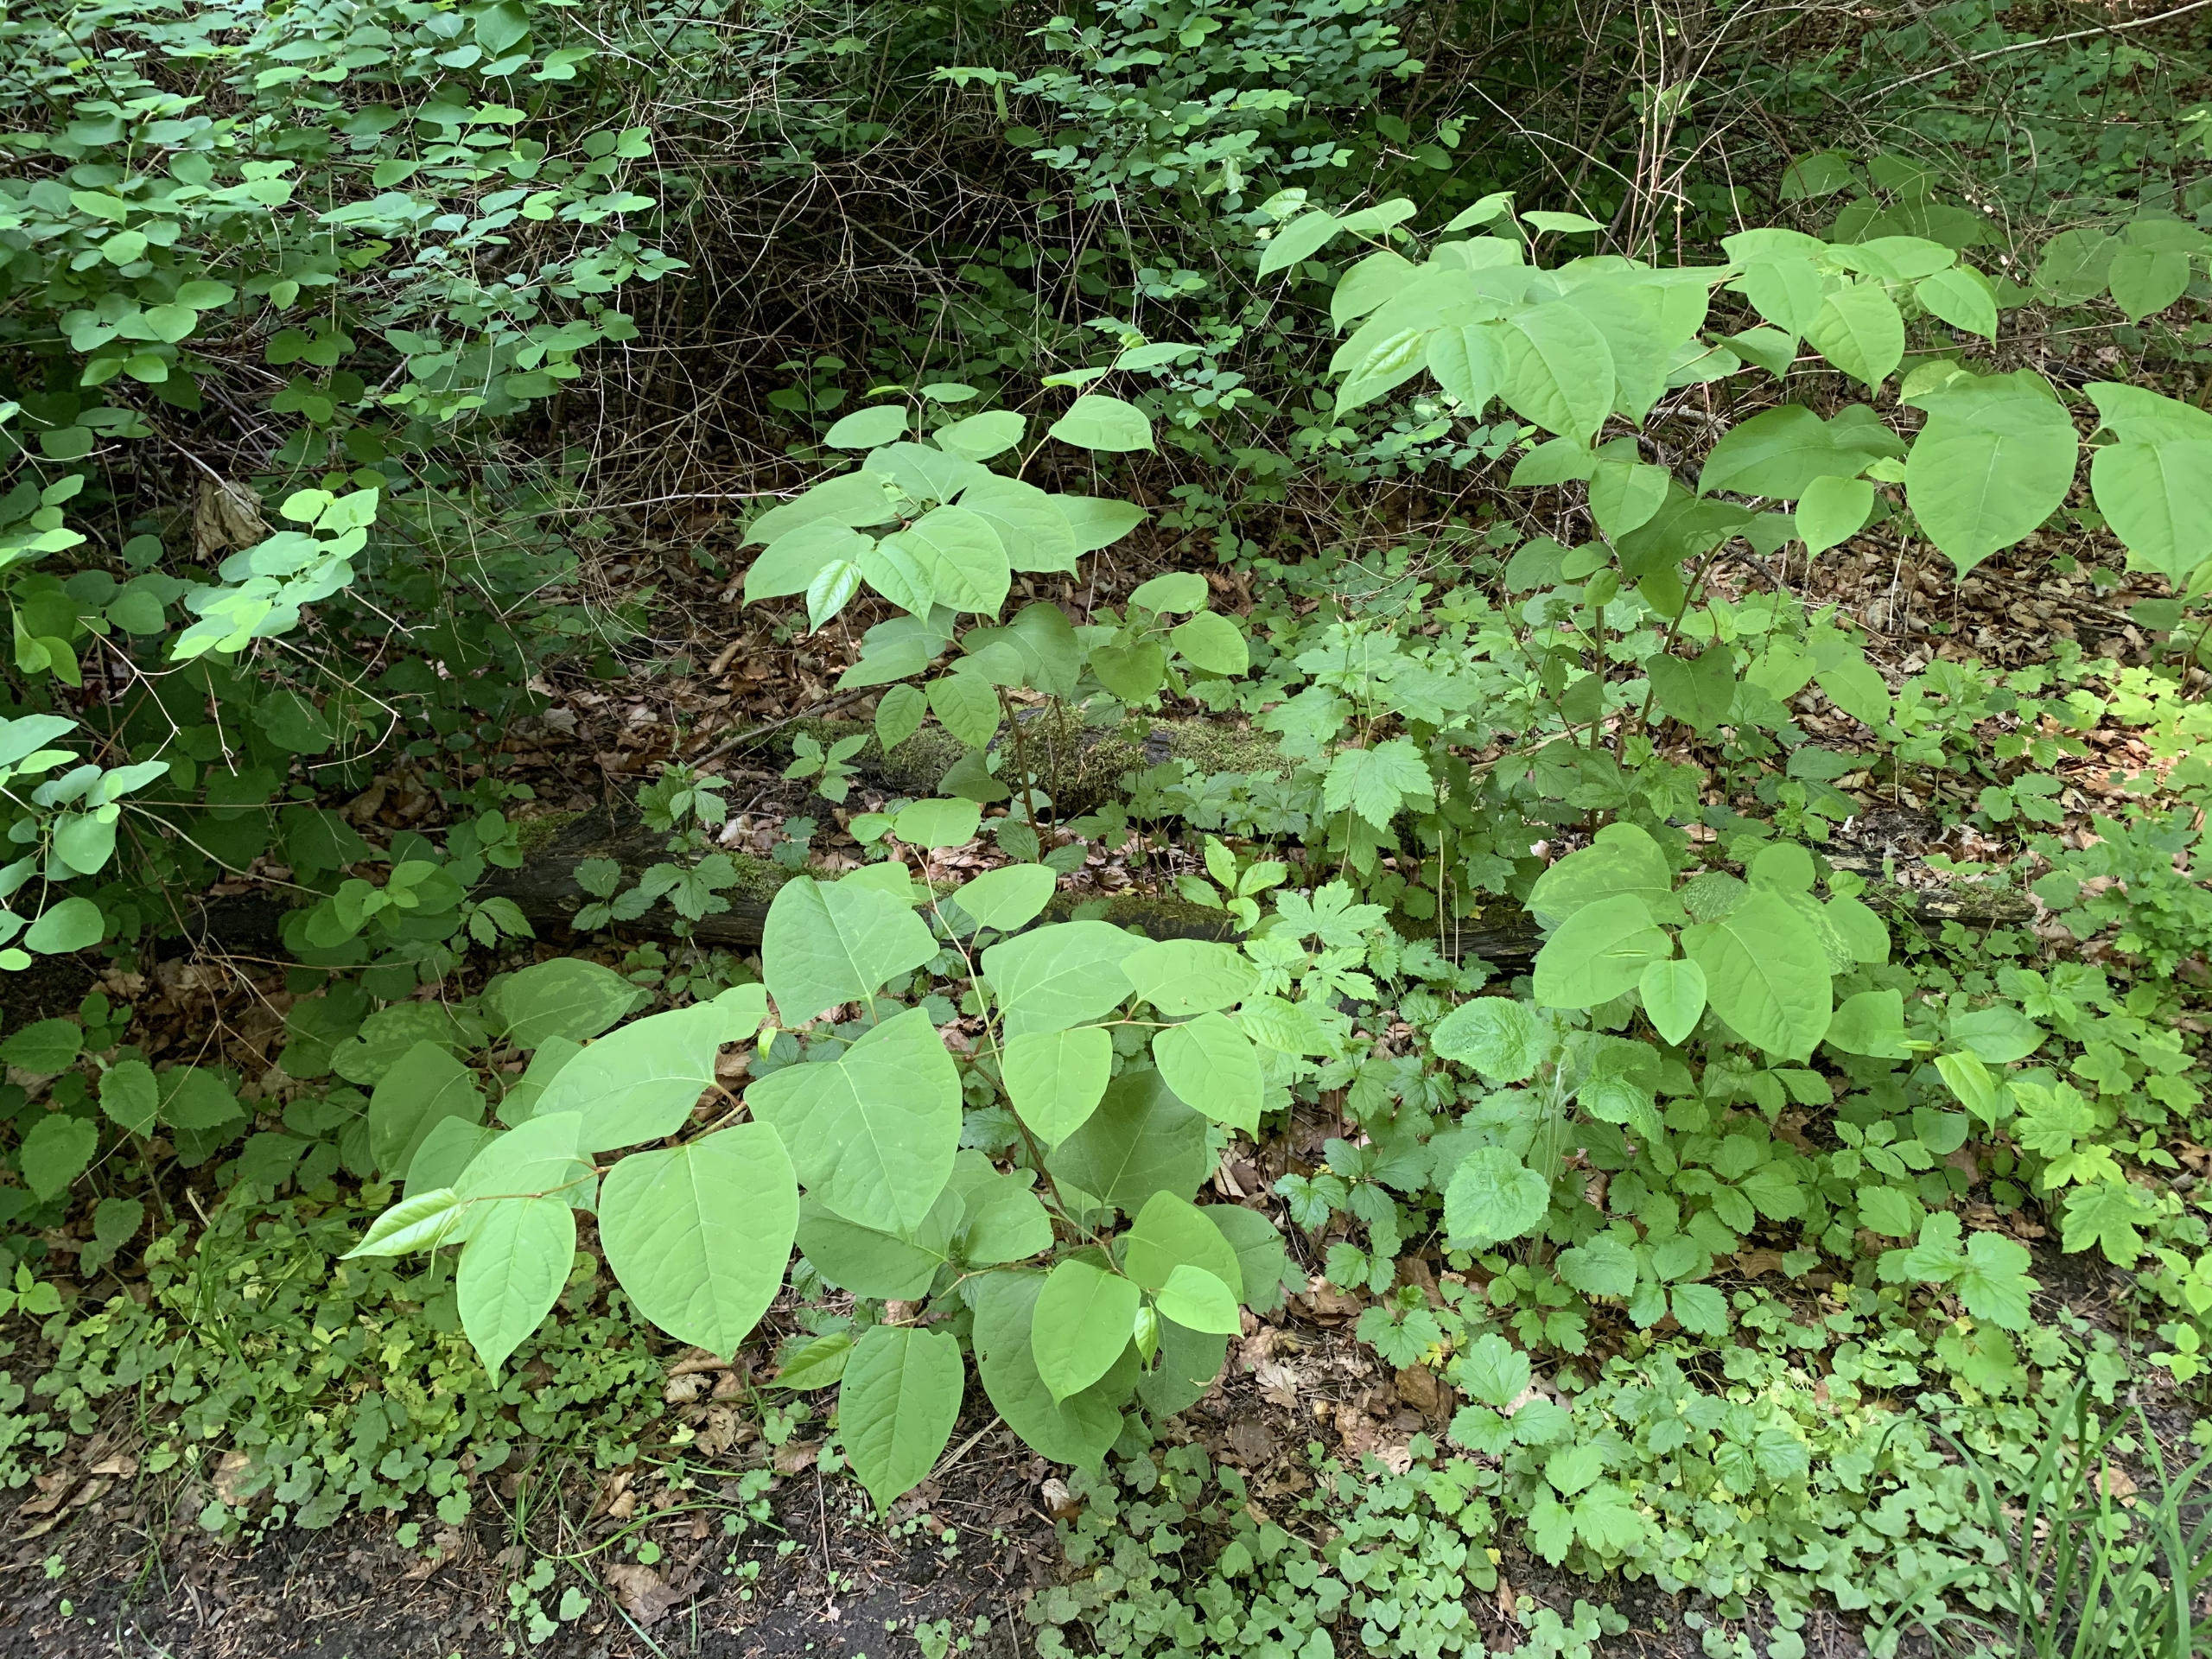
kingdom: Plantae
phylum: Tracheophyta
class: Magnoliopsida
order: Caryophyllales
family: Polygonaceae
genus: Reynoutria
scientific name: Reynoutria japonica
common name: Japan-pileurt
